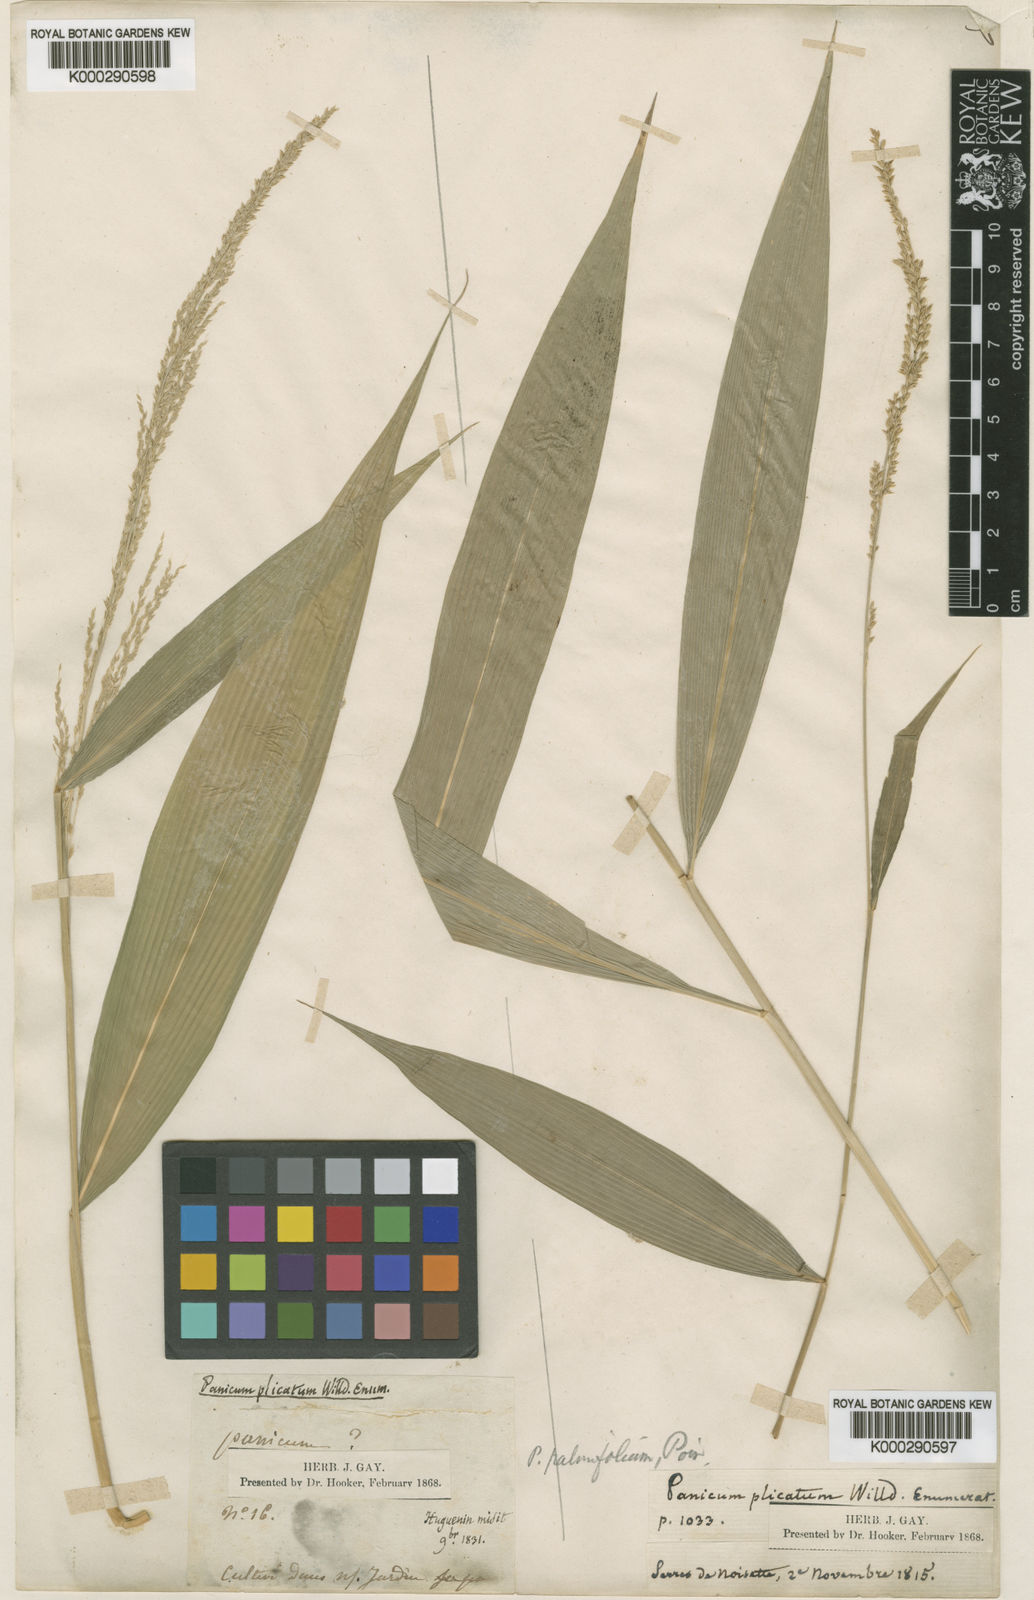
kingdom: Plantae
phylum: Tracheophyta
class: Liliopsida
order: Poales
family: Poaceae
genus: Setaria
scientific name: Setaria palmifolia
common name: Broadleaved bristlegrass
